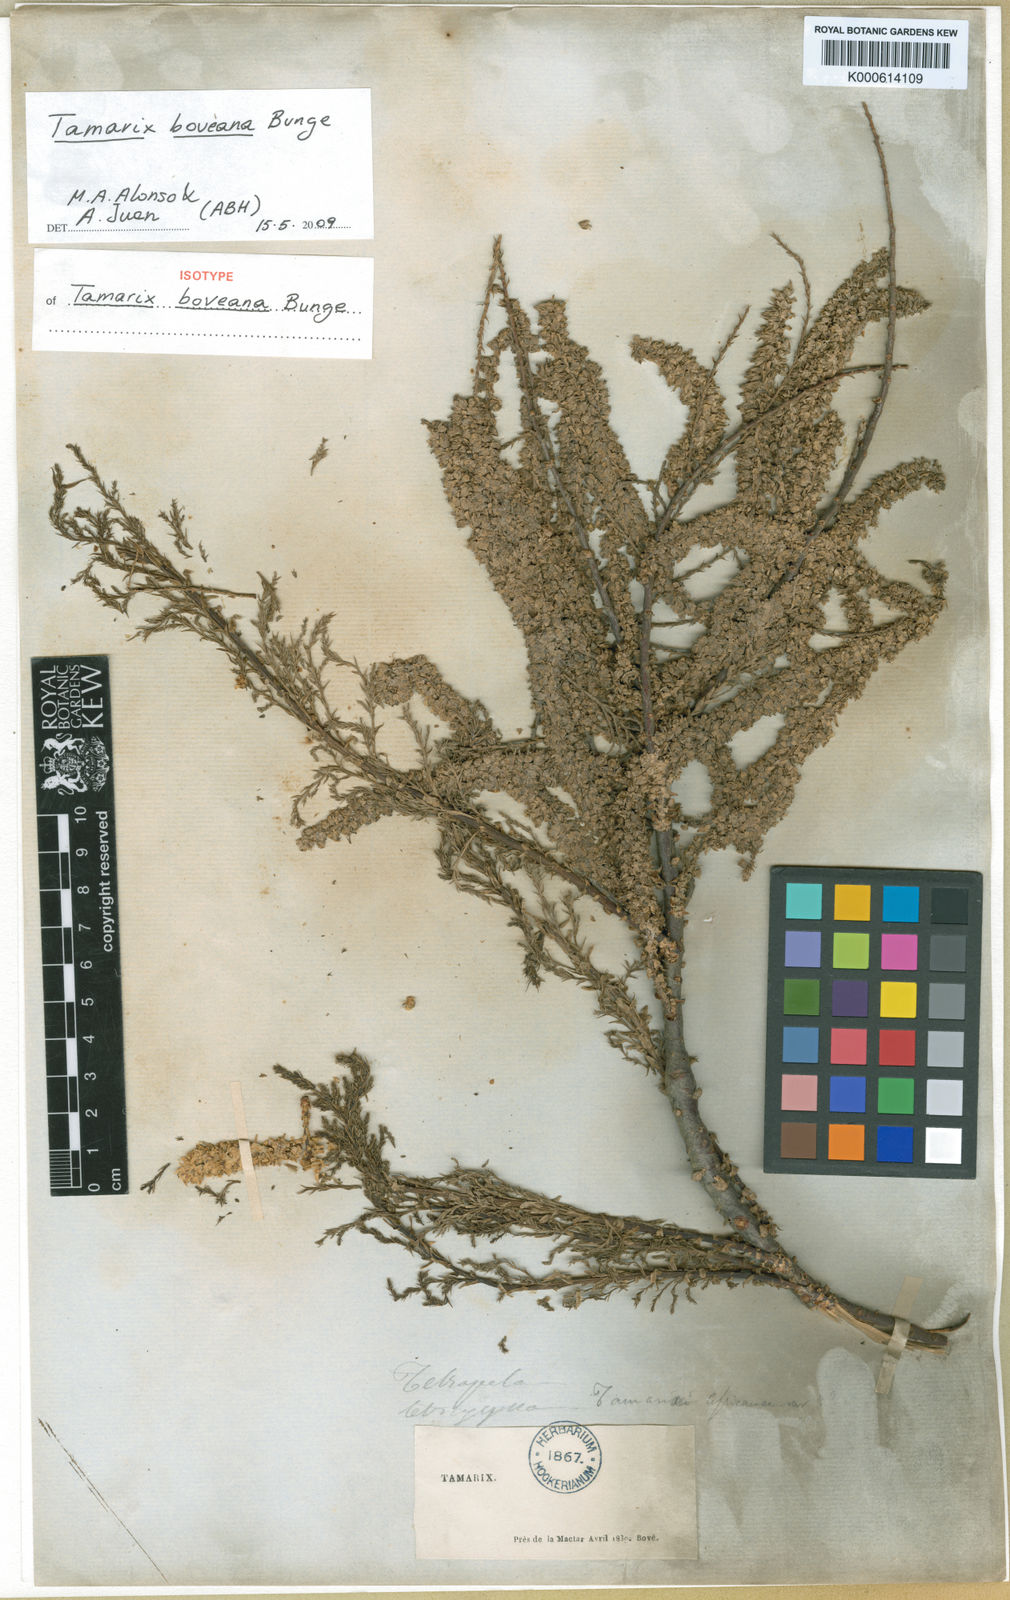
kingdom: Plantae
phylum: Tracheophyta
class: Magnoliopsida
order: Caryophyllales
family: Tamaricaceae
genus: Tamarix
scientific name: Tamarix boveana
